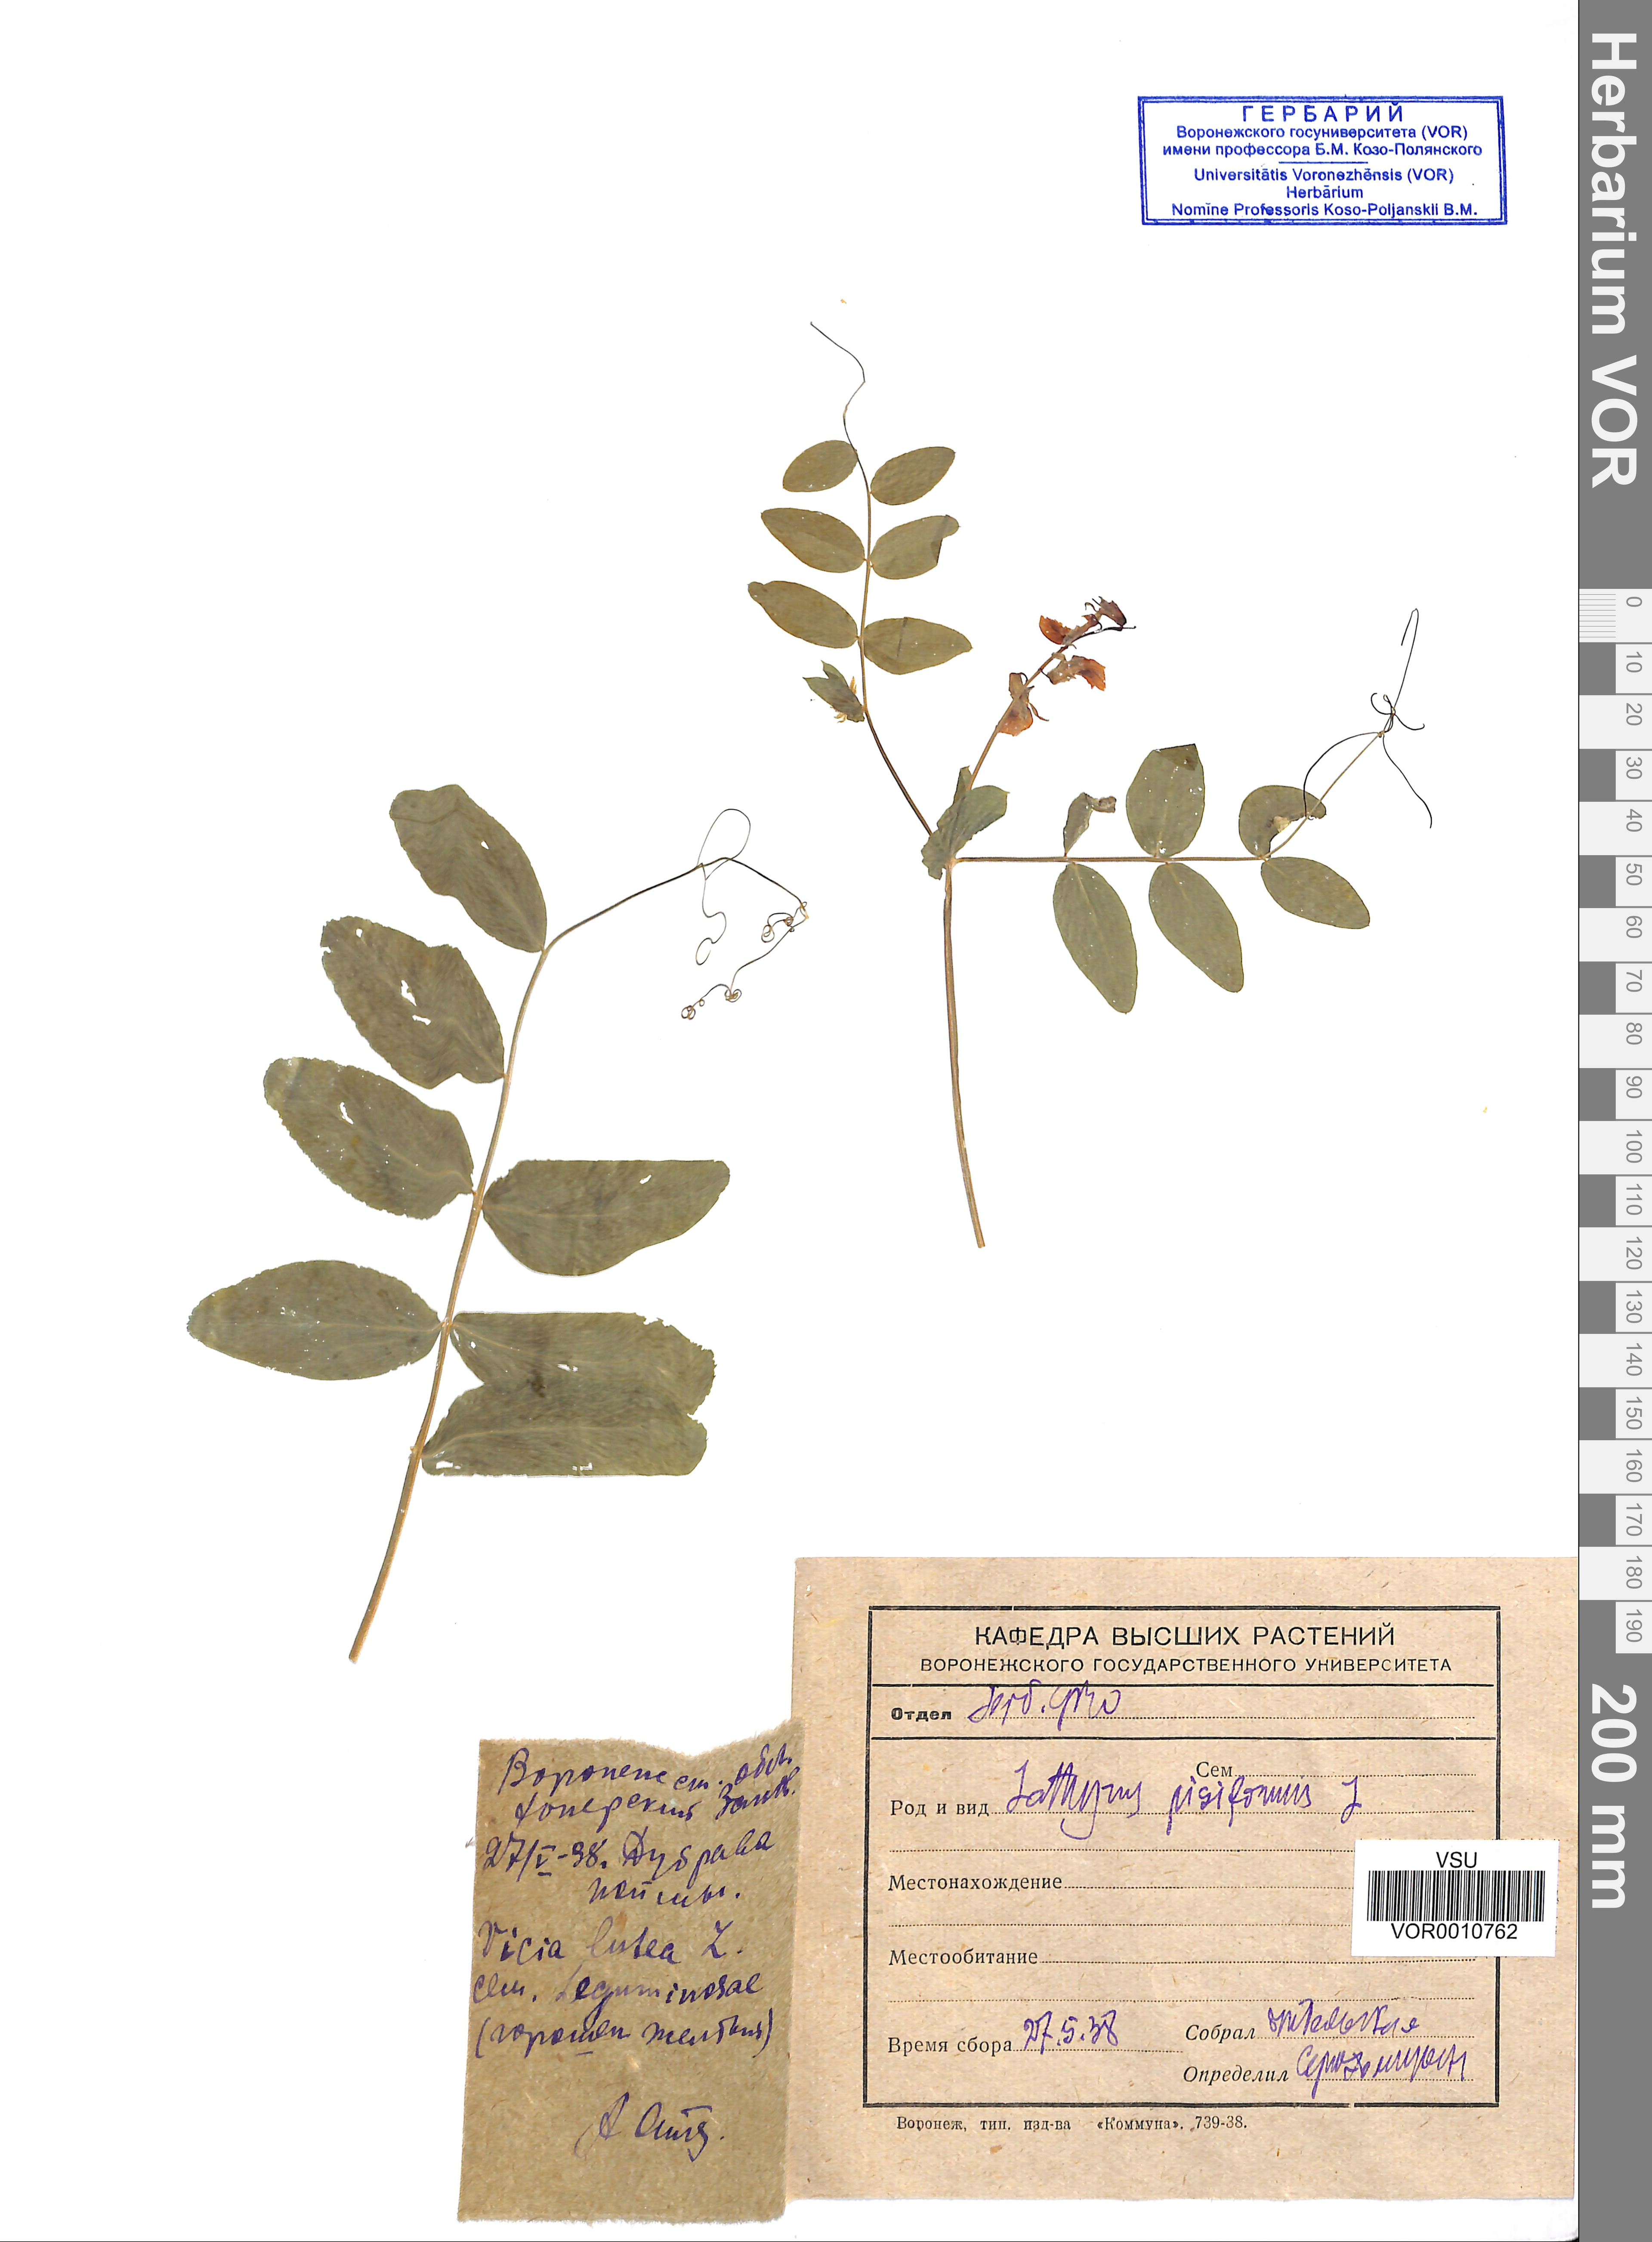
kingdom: Plantae
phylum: Tracheophyta
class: Magnoliopsida
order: Fabales
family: Fabaceae
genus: Lathyrus
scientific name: Lathyrus pisiformis
